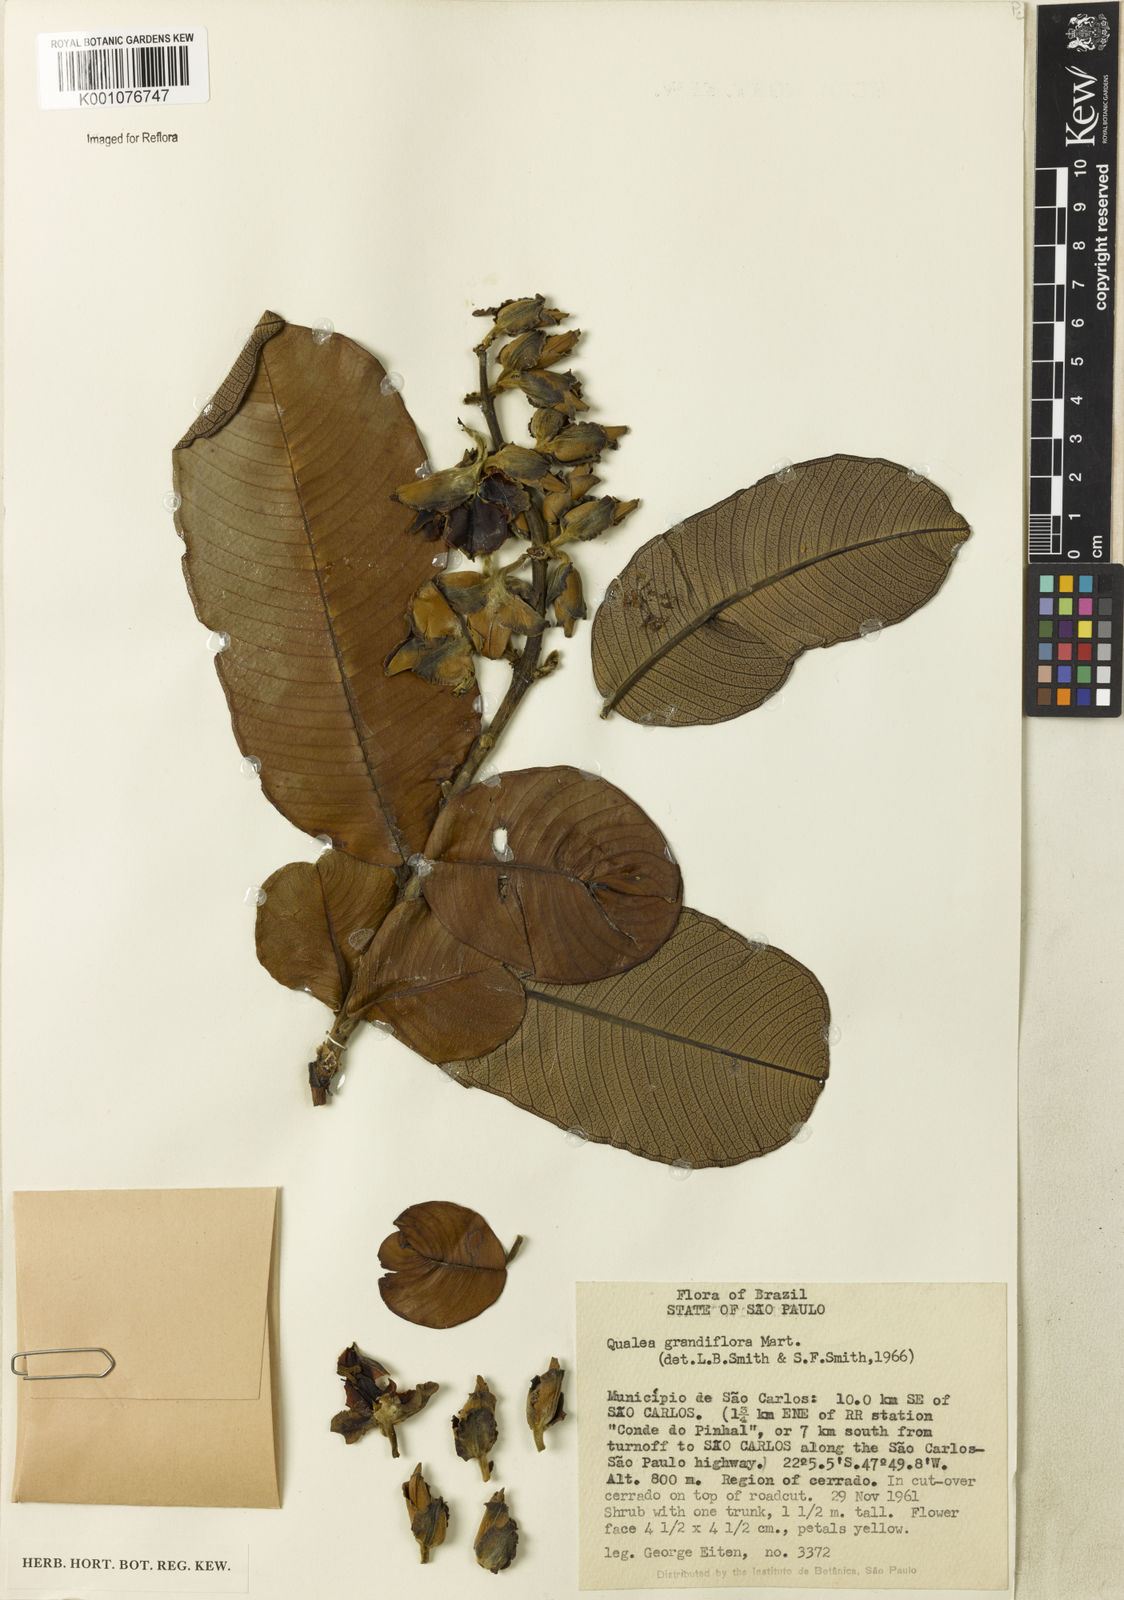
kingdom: Plantae
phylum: Tracheophyta
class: Magnoliopsida
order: Myrtales
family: Vochysiaceae
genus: Qualea
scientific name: Qualea grandiflora
